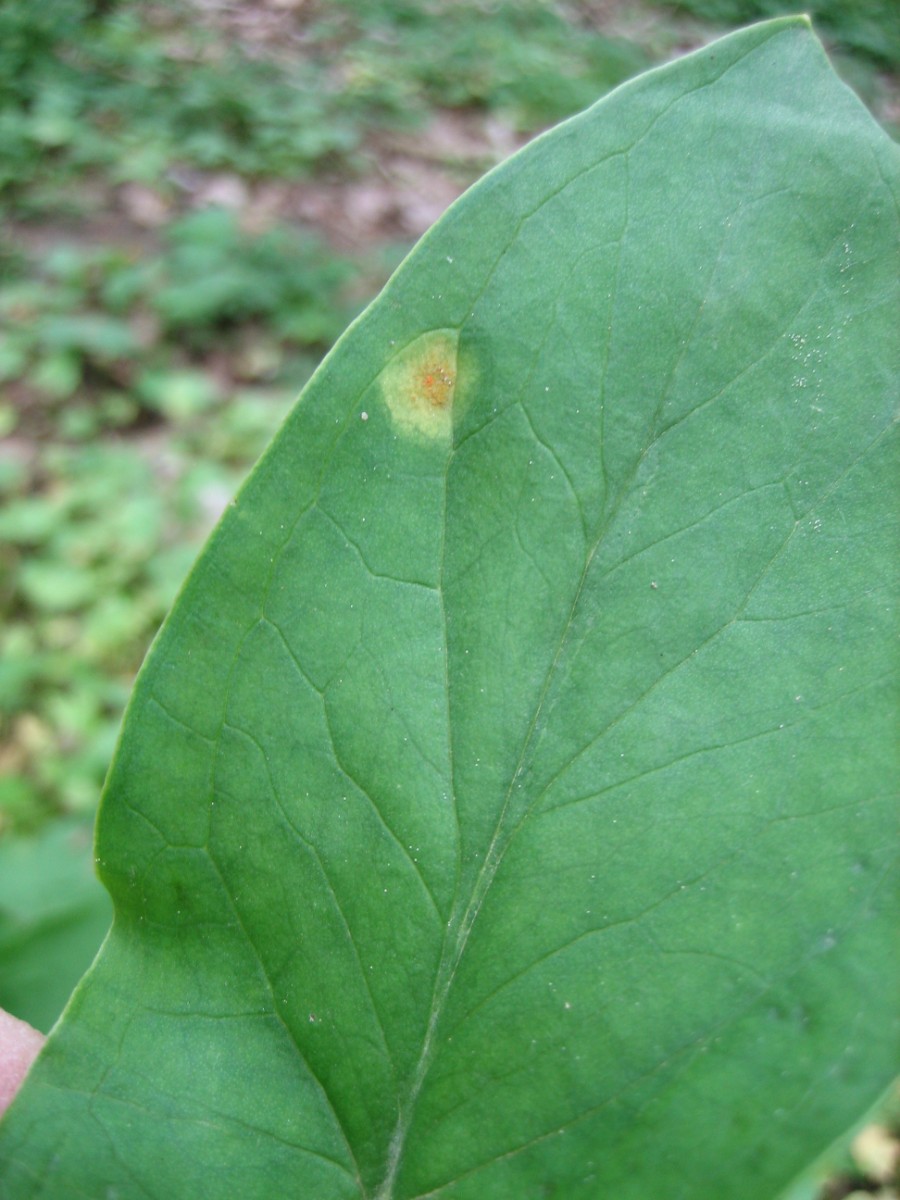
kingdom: Fungi
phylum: Basidiomycota
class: Pucciniomycetes
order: Pucciniales
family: Pucciniaceae
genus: Puccinia
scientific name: Puccinia sessilis
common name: Arum rust
